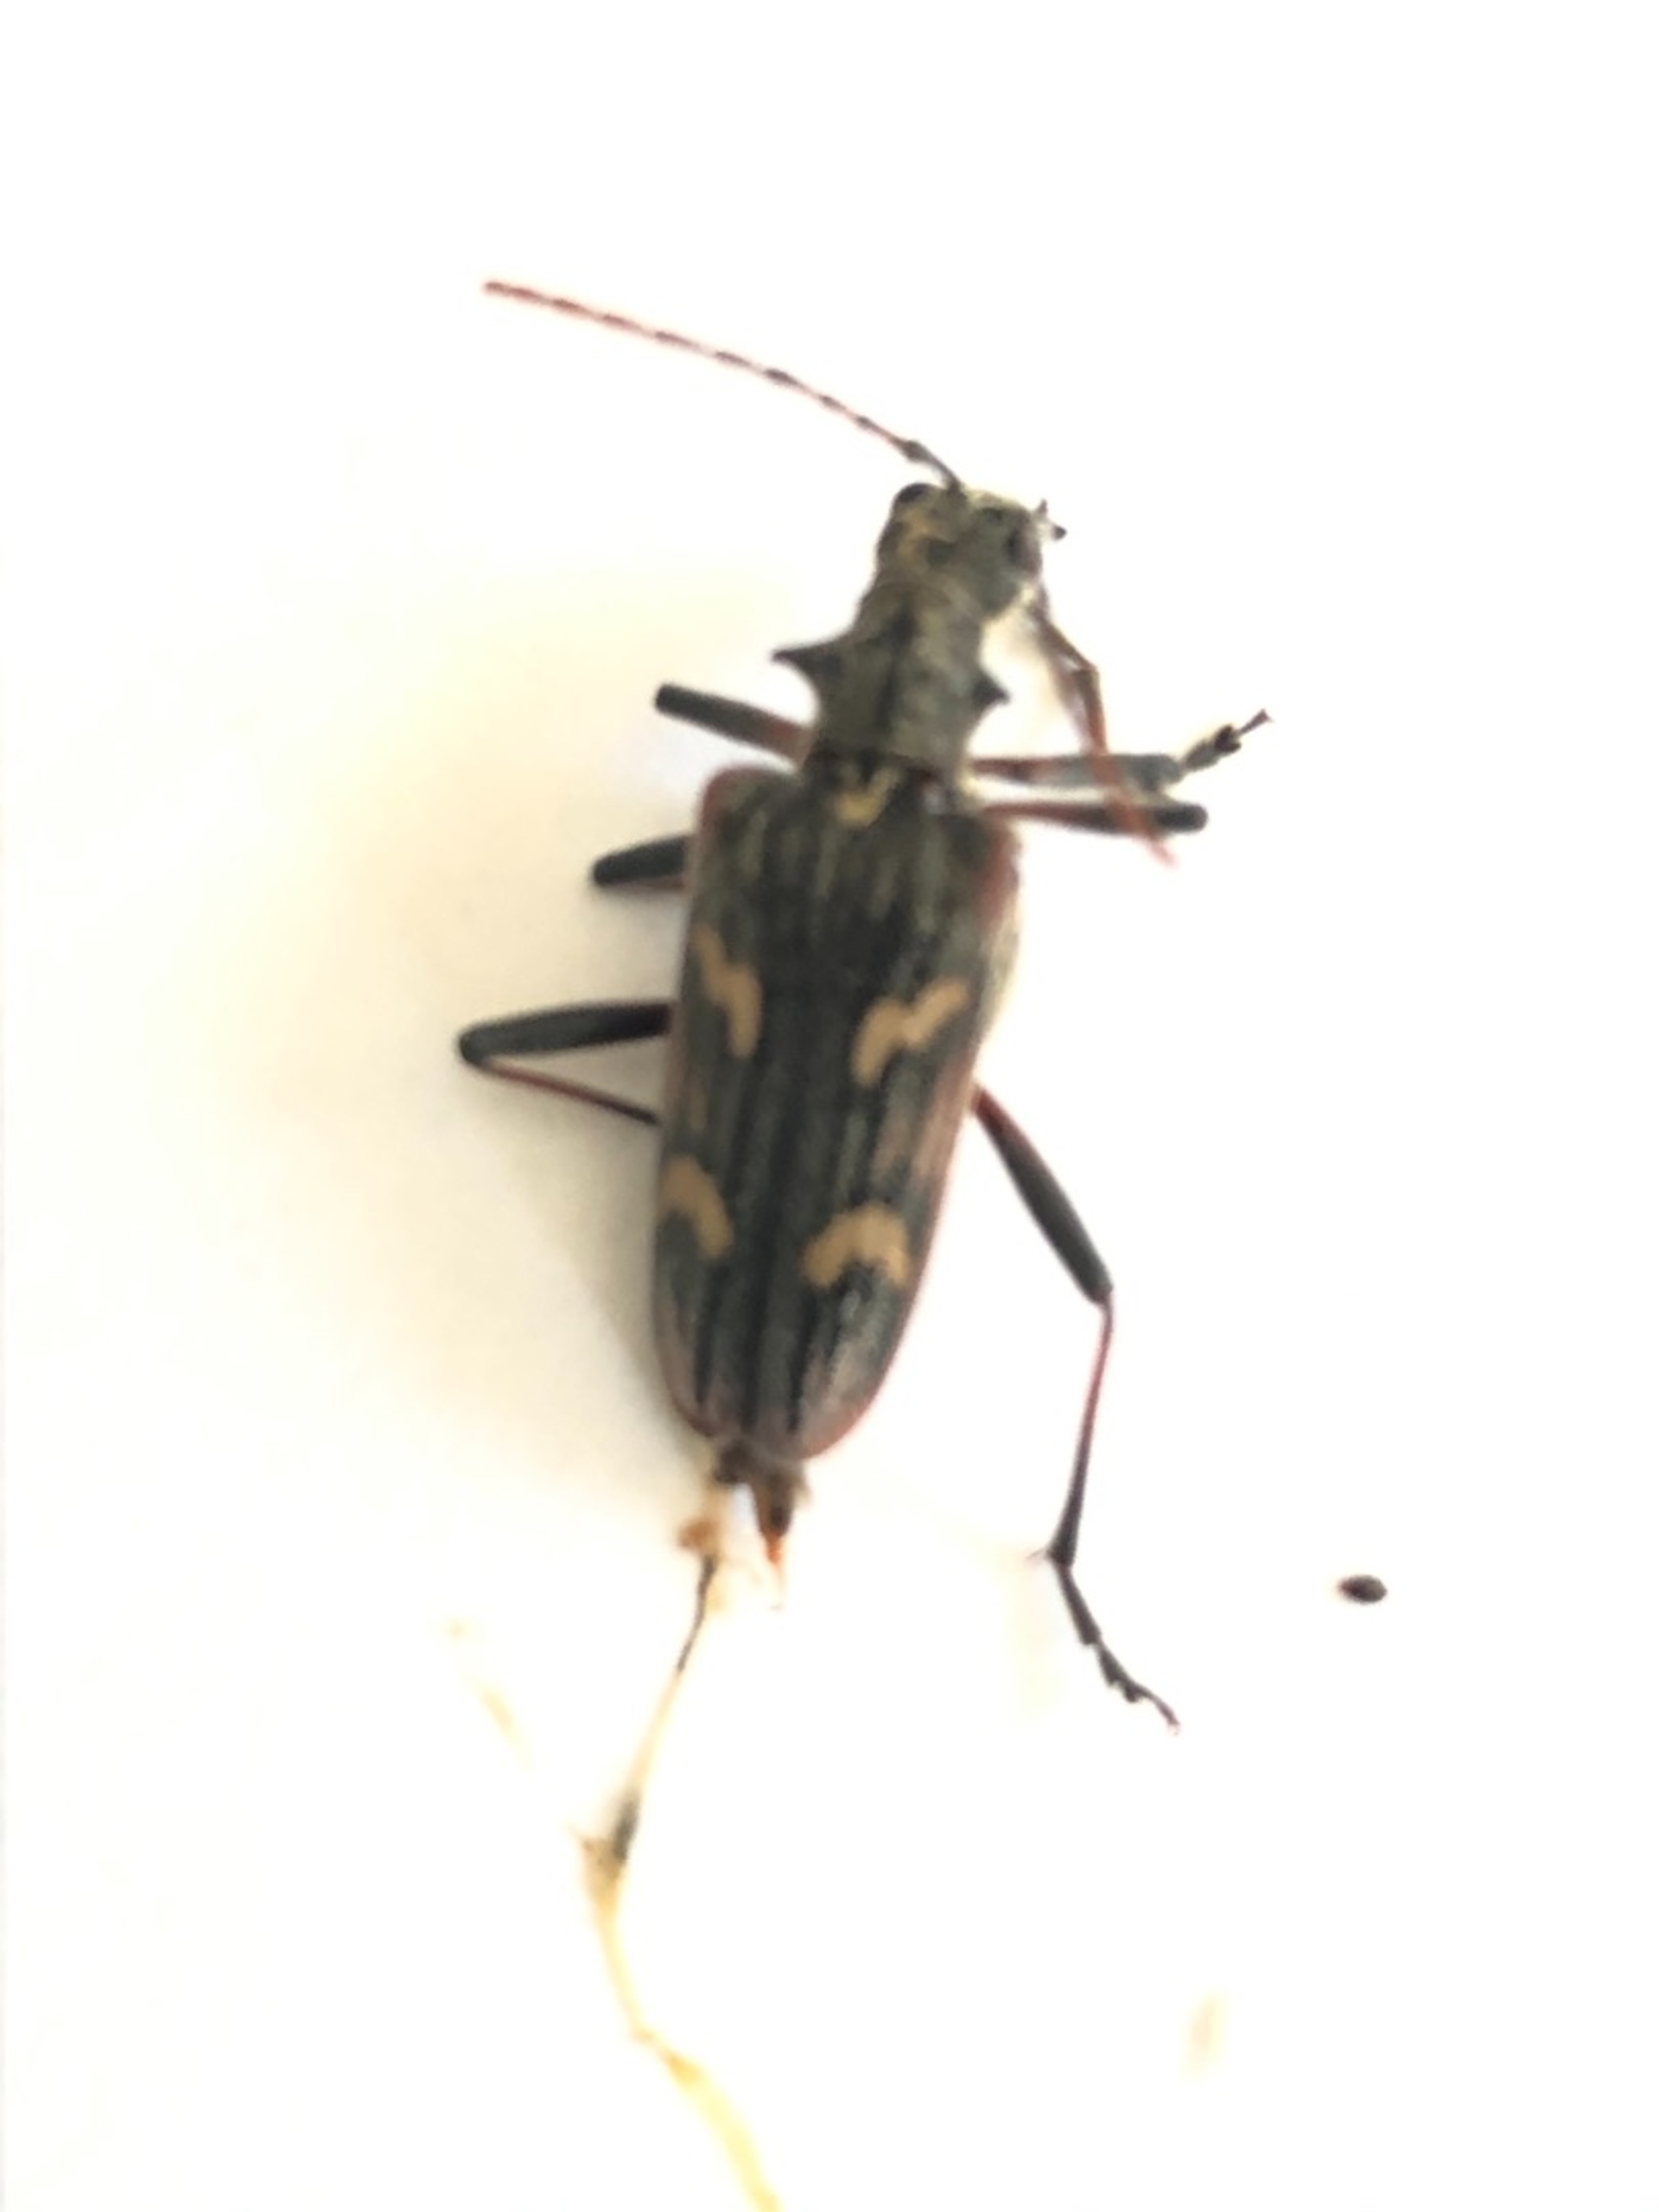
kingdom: Animalia
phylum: Arthropoda
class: Insecta
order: Coleoptera
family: Cerambycidae
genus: Rhagium
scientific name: Rhagium bifasciatum
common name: Båndet tandbuk
